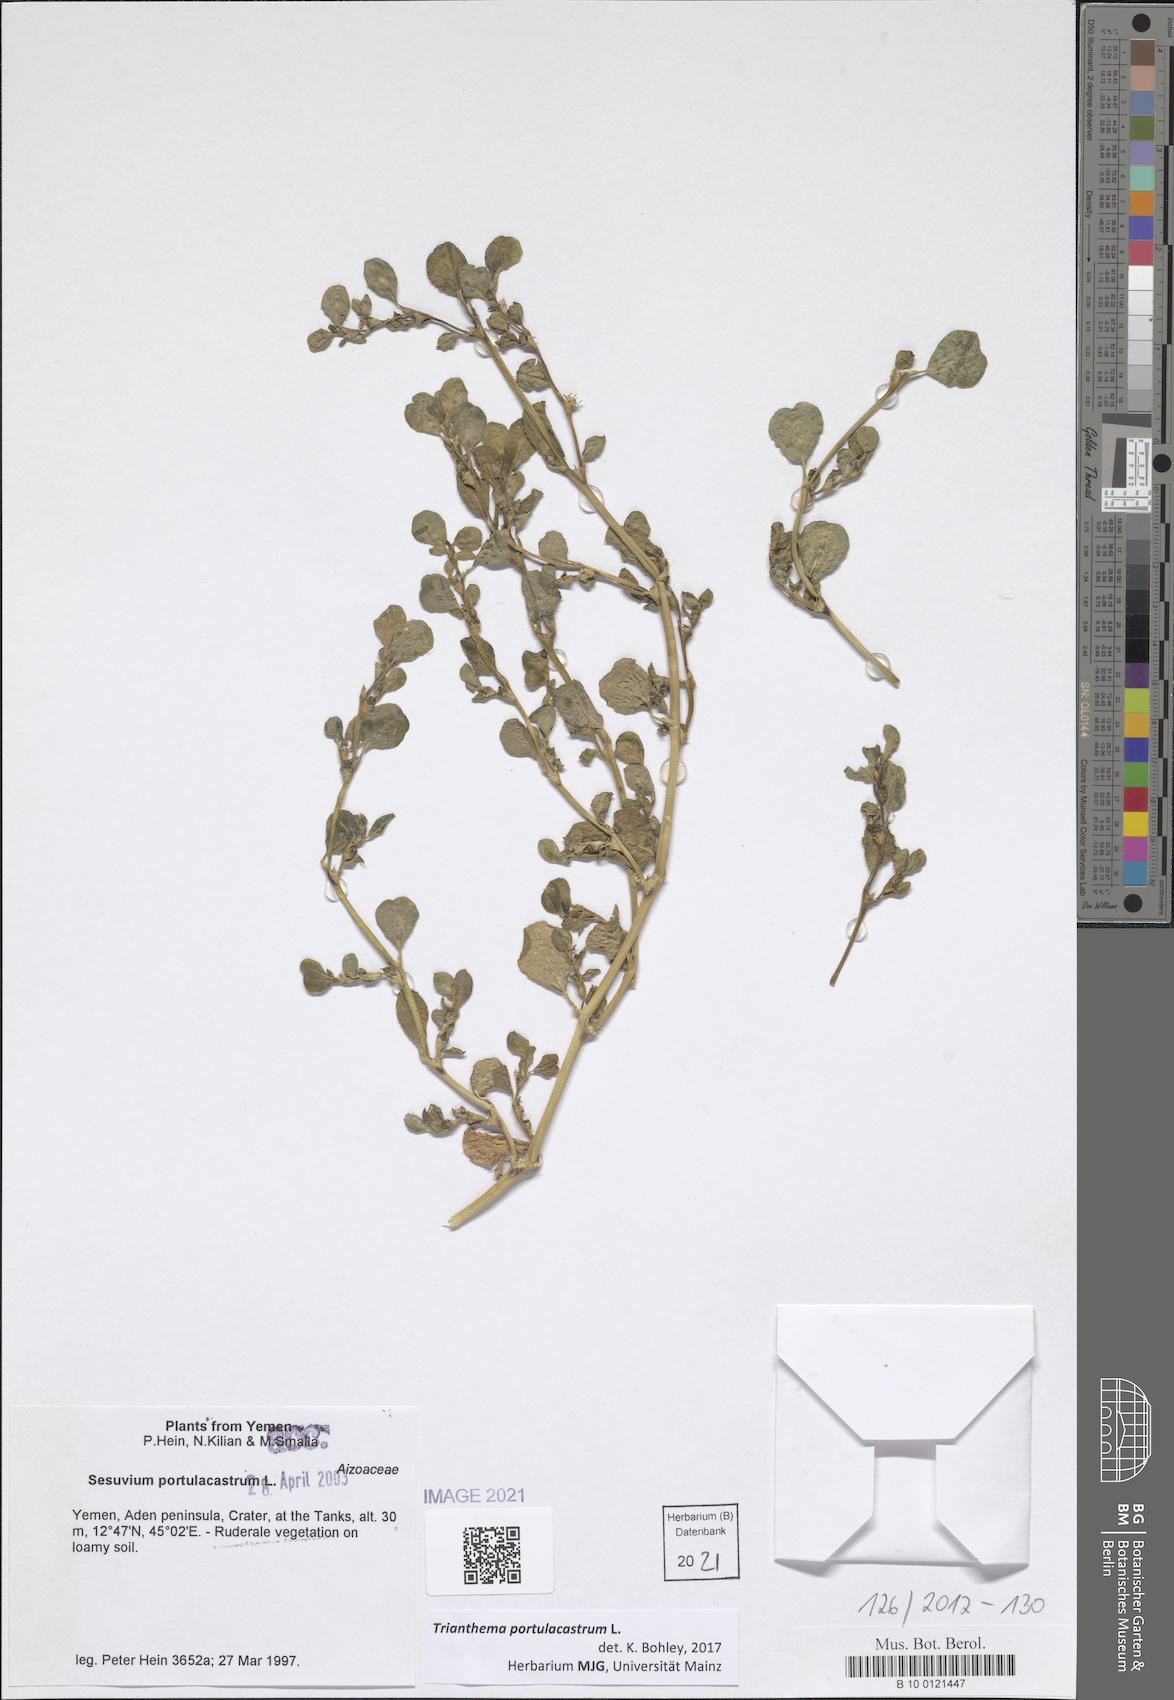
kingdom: Plantae
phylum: Tracheophyta
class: Magnoliopsida
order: Caryophyllales
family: Aizoaceae
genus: Trianthema
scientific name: Trianthema portulacastrum
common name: Desert horsepurslane
